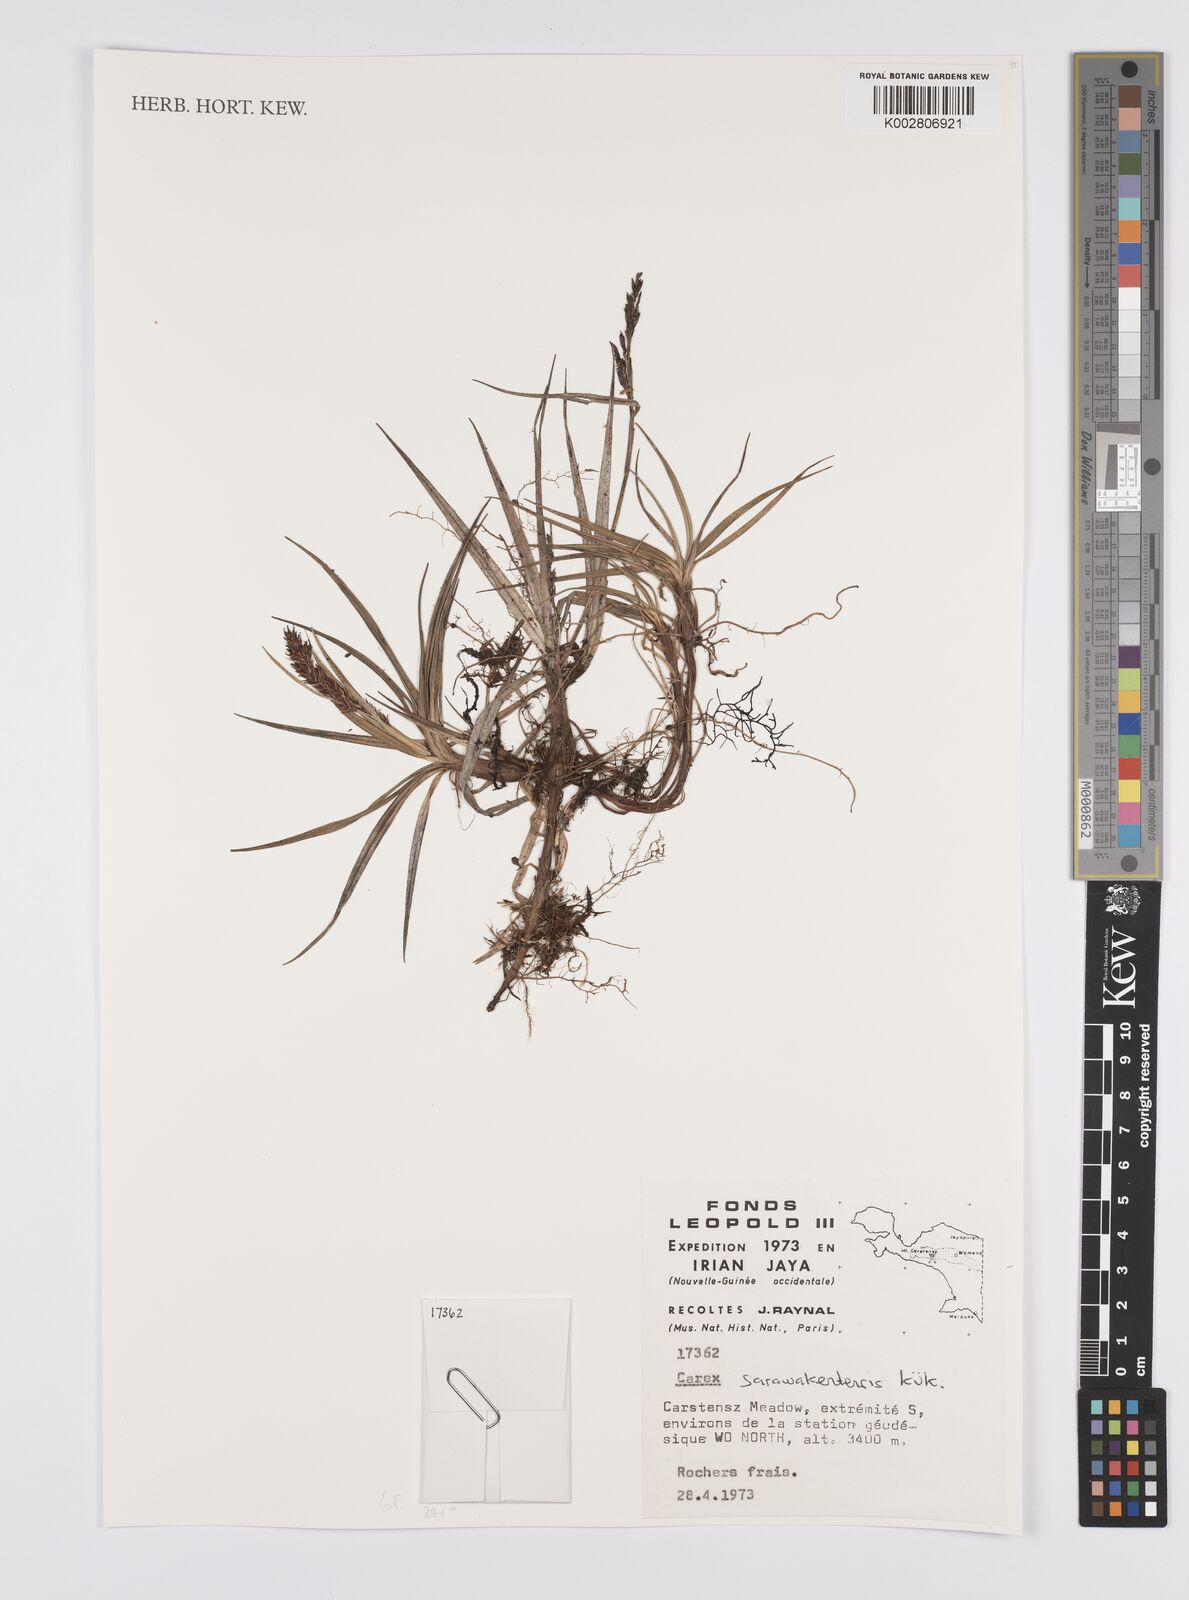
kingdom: Plantae
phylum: Tracheophyta
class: Liliopsida
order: Poales
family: Cyperaceae
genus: Carex
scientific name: Carex sarawaketensis
